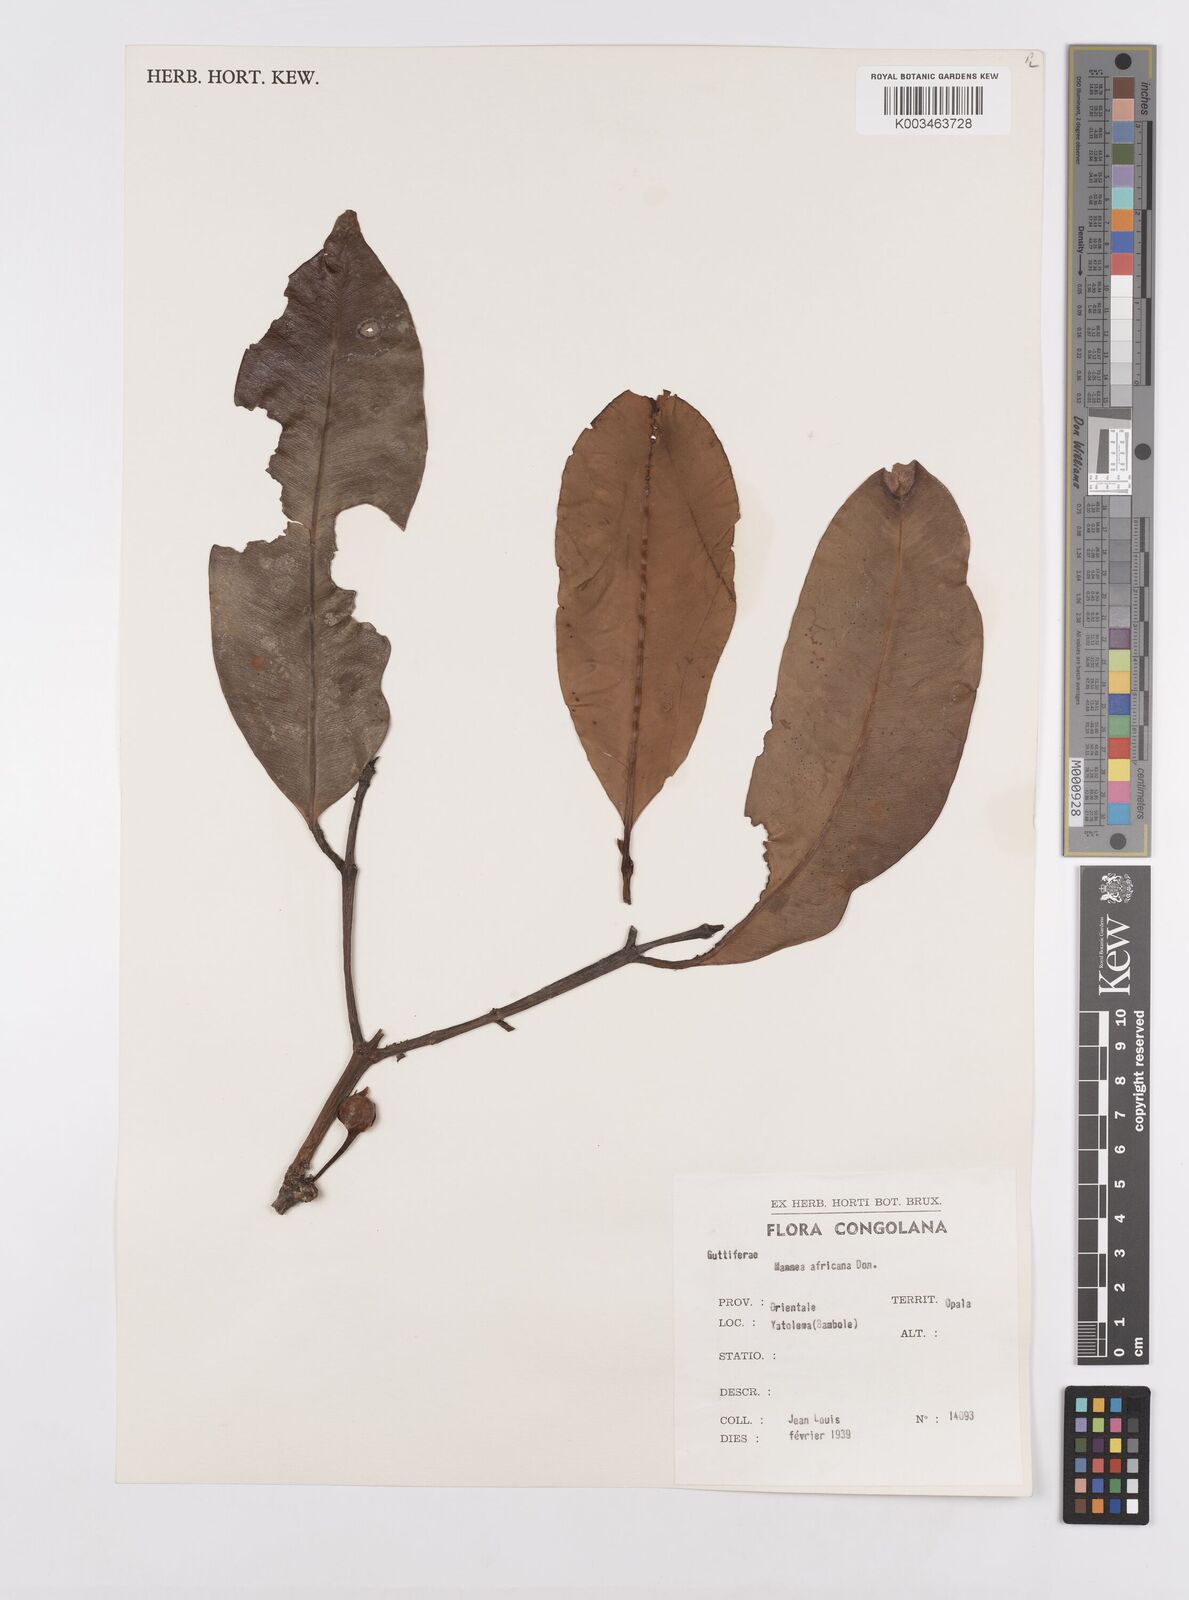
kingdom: Plantae
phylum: Tracheophyta
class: Magnoliopsida
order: Malpighiales
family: Calophyllaceae
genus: Mammea
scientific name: Mammea africana
